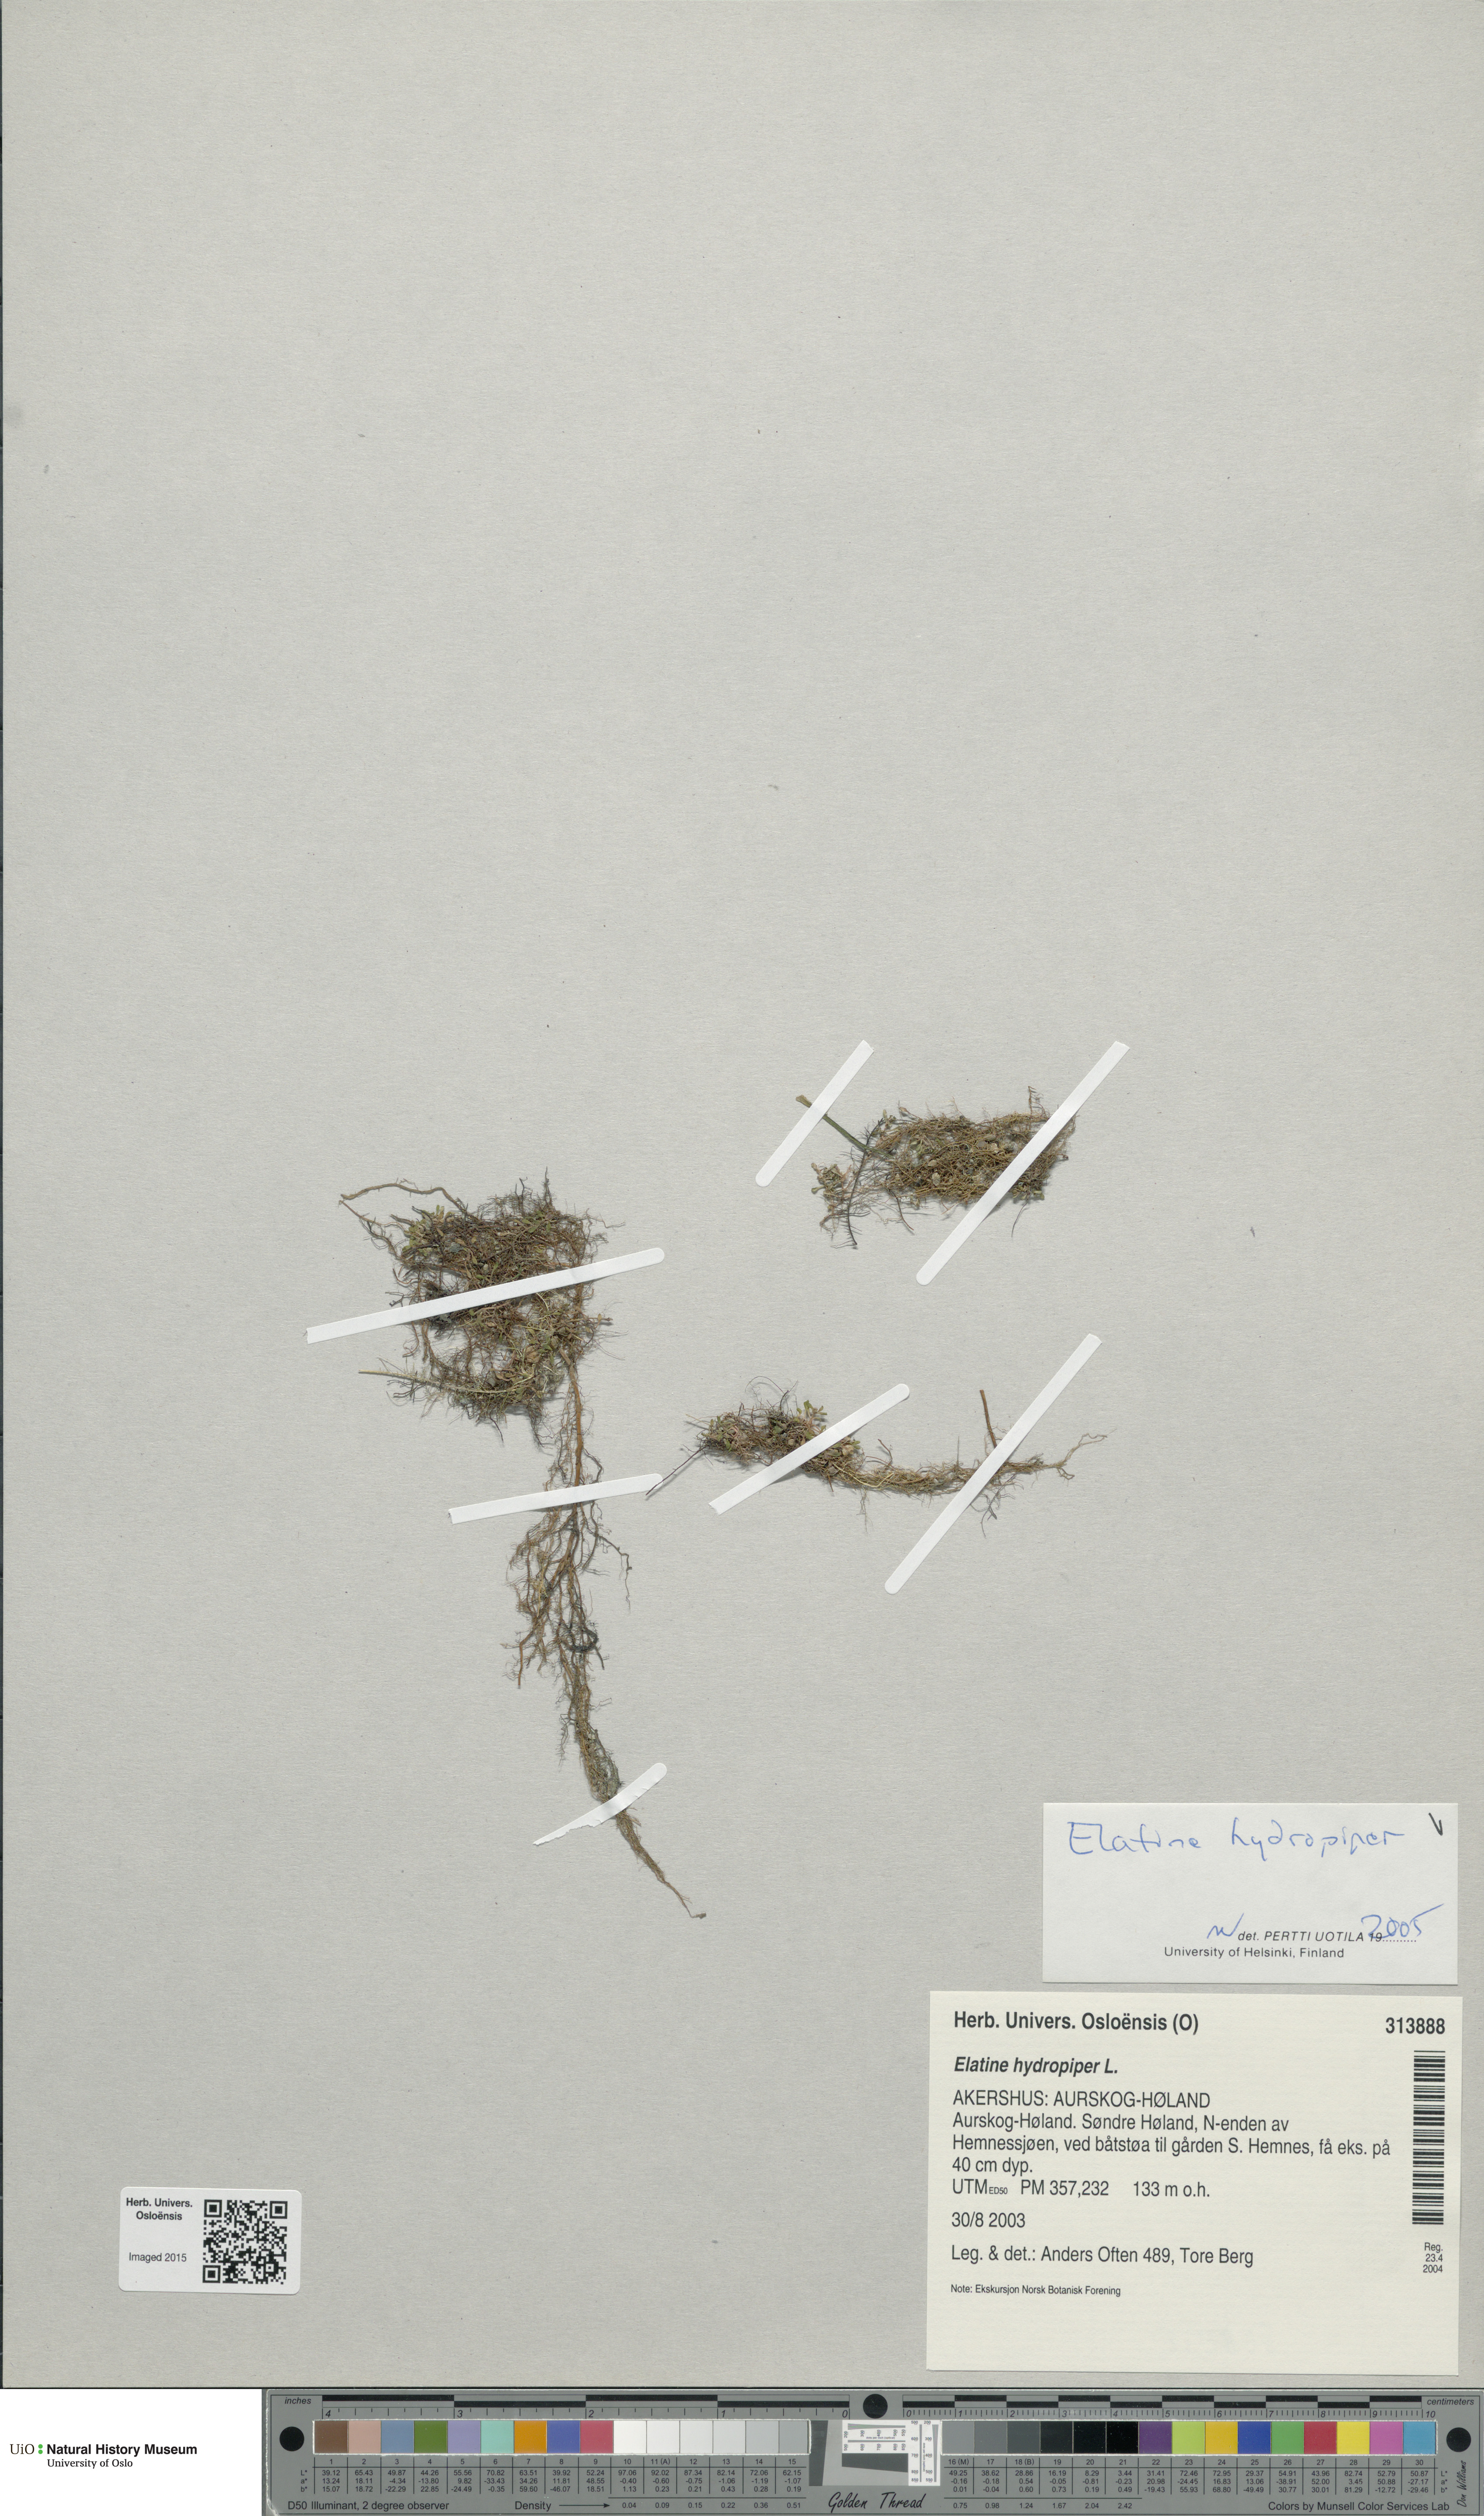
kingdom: Plantae
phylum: Tracheophyta
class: Magnoliopsida
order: Malpighiales
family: Elatinaceae
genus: Elatine
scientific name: Elatine hydropiper
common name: Eight-stamened waterwort
